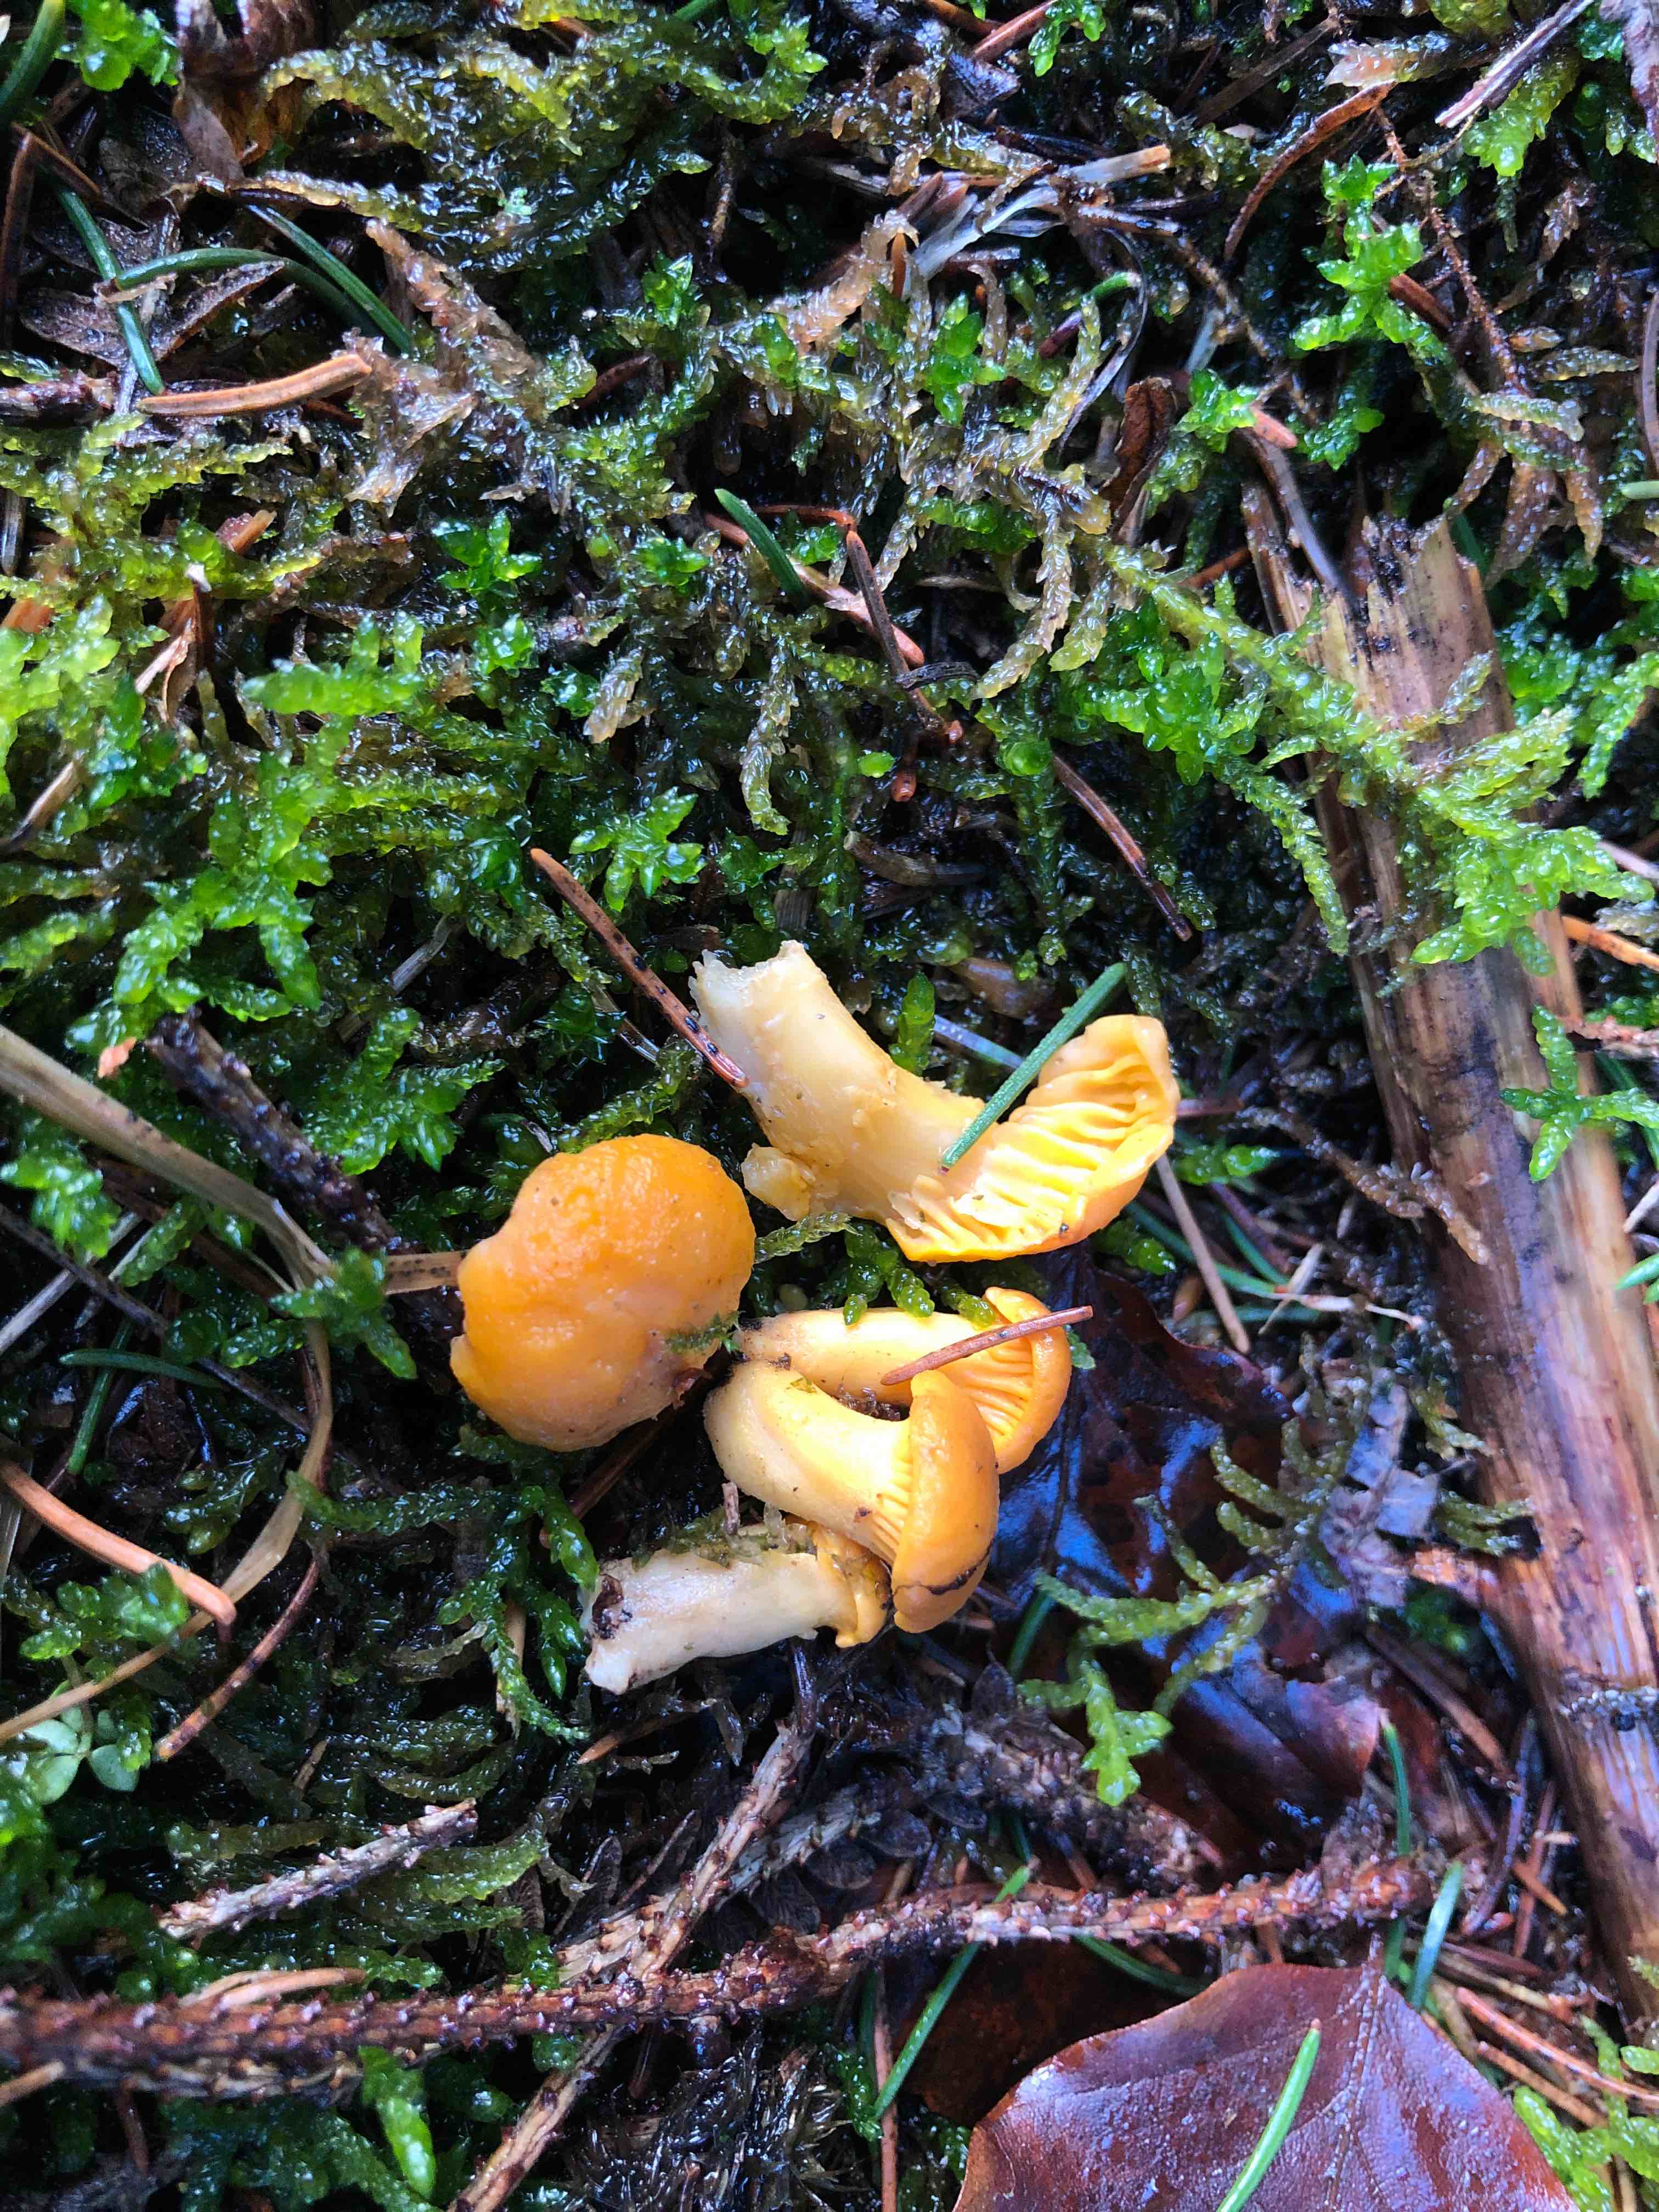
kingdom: Fungi
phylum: Basidiomycota
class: Agaricomycetes
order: Cantharellales
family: Hydnaceae
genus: Cantharellus
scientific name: Cantharellus cibarius
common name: almindelig kantarel
